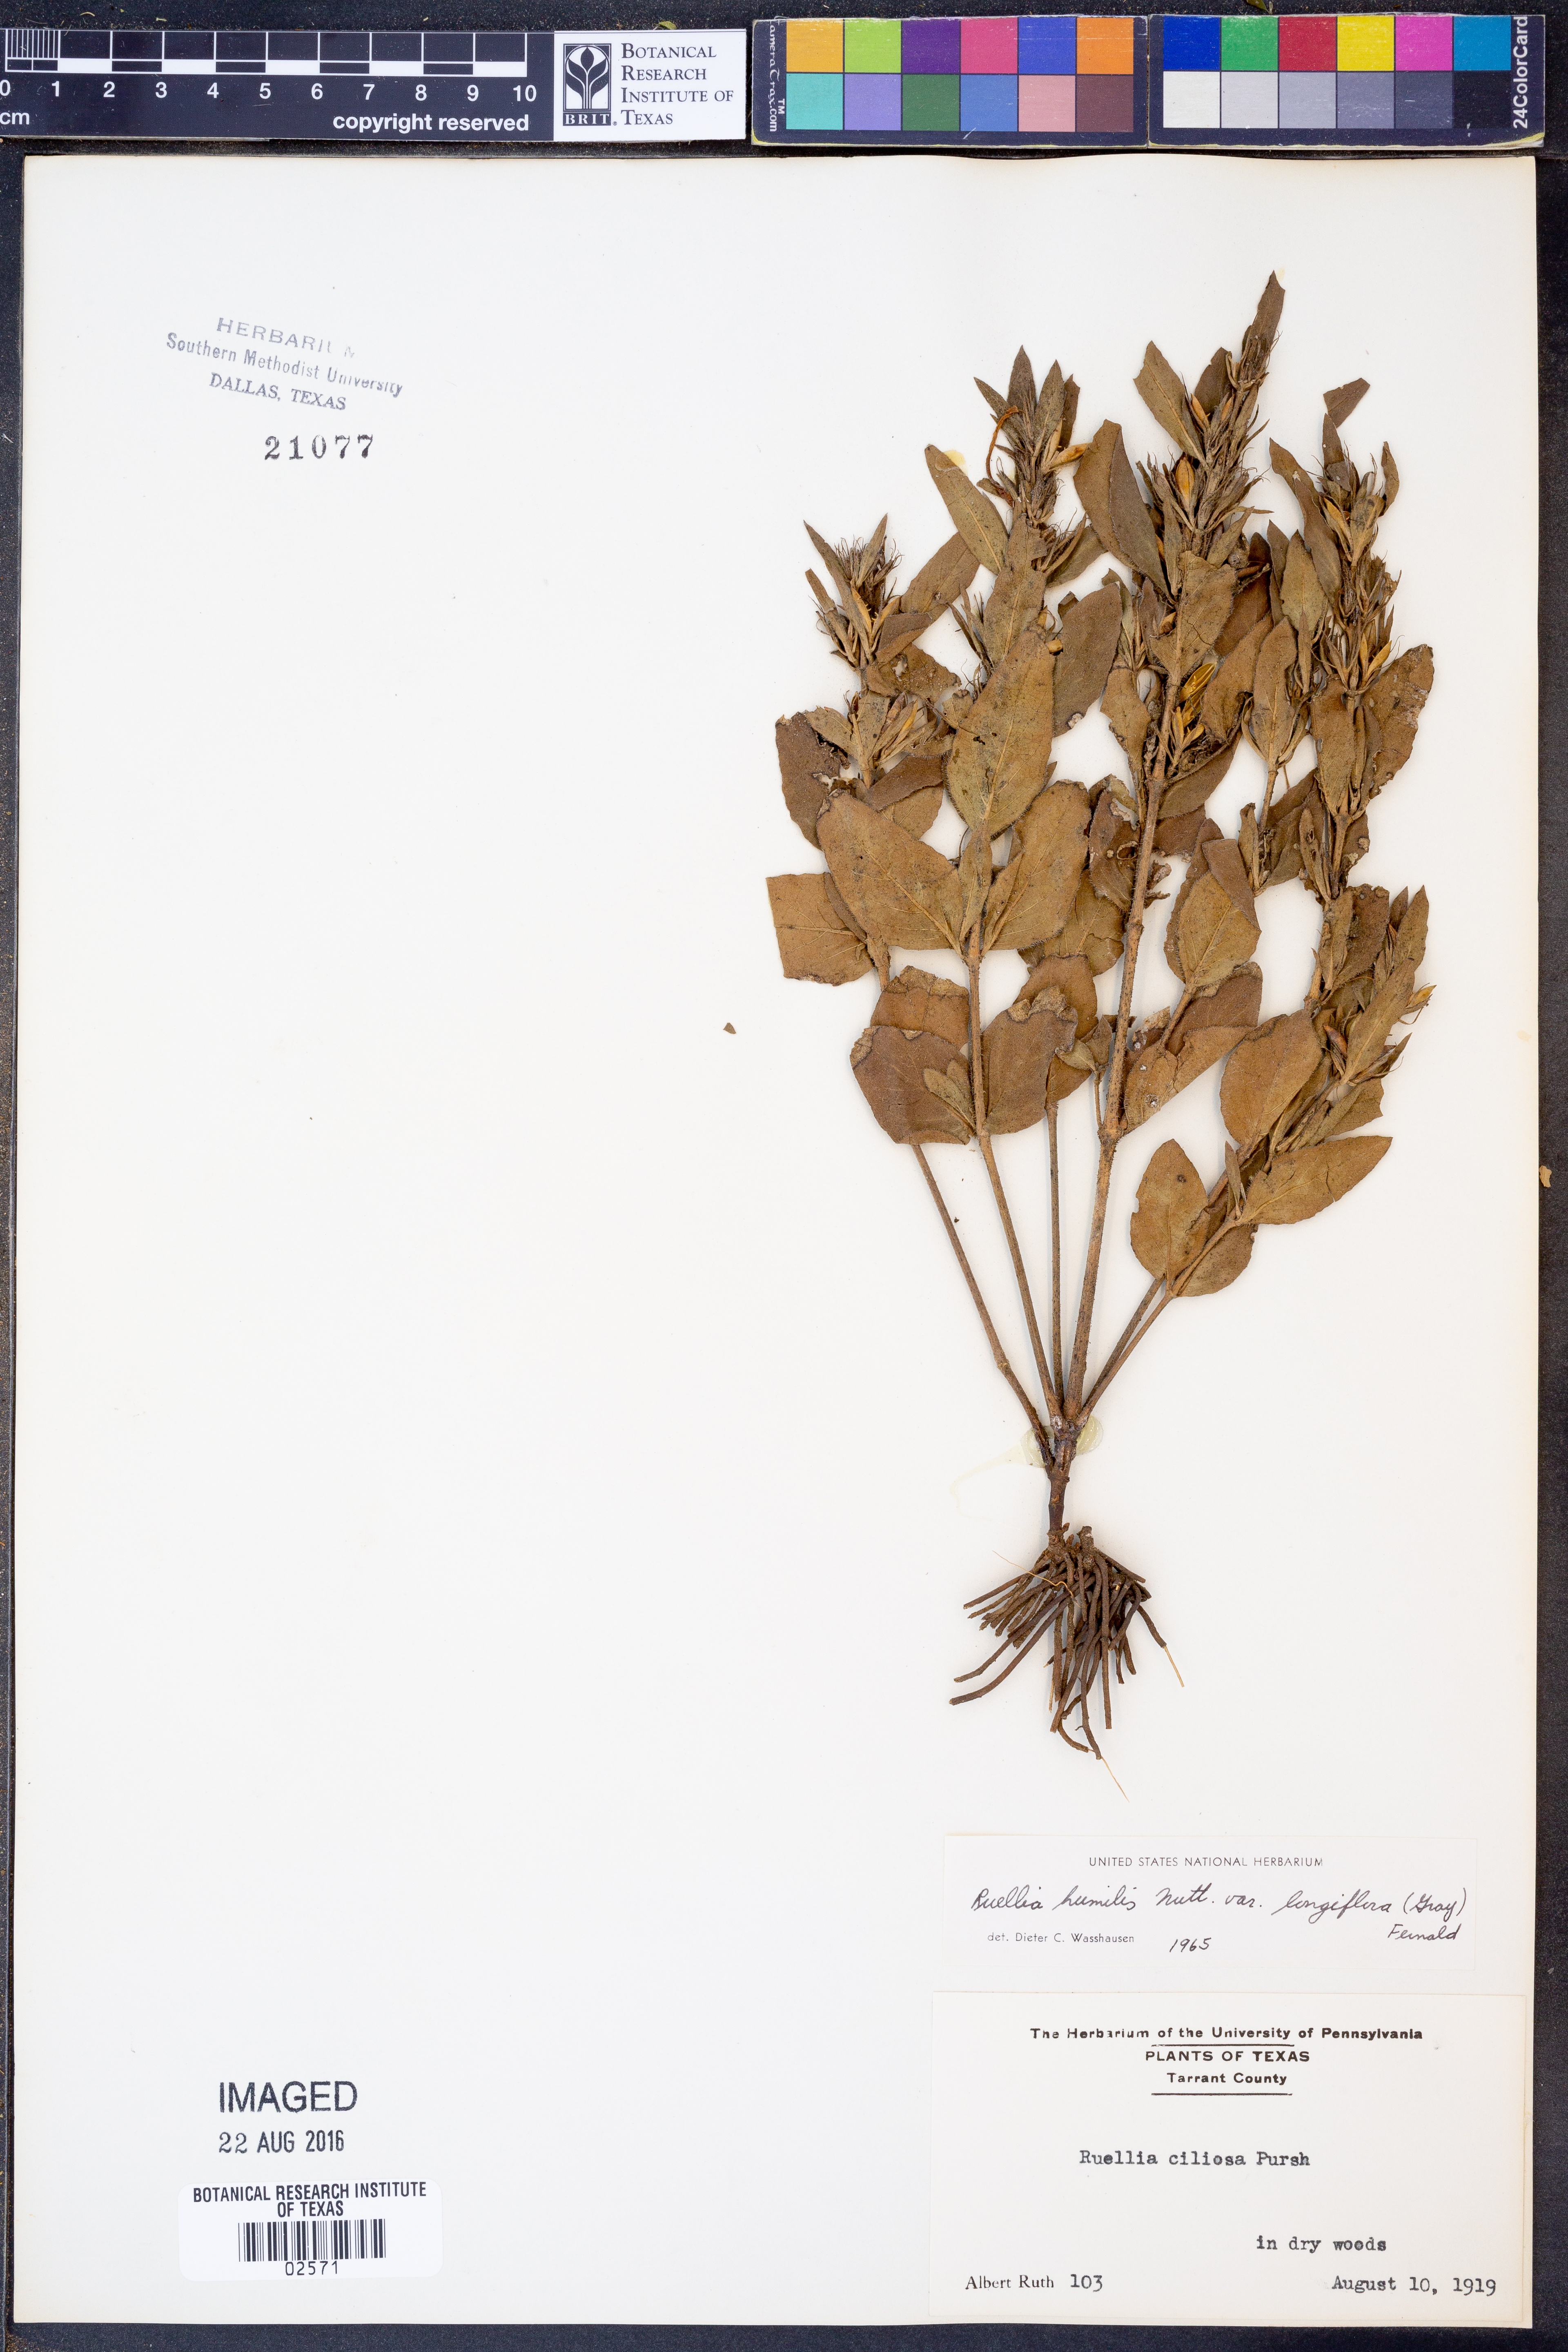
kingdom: Plantae
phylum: Tracheophyta
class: Magnoliopsida
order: Lamiales
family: Acanthaceae
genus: Ruellia
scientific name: Ruellia humilis
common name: Fringe-leaf ruellia
